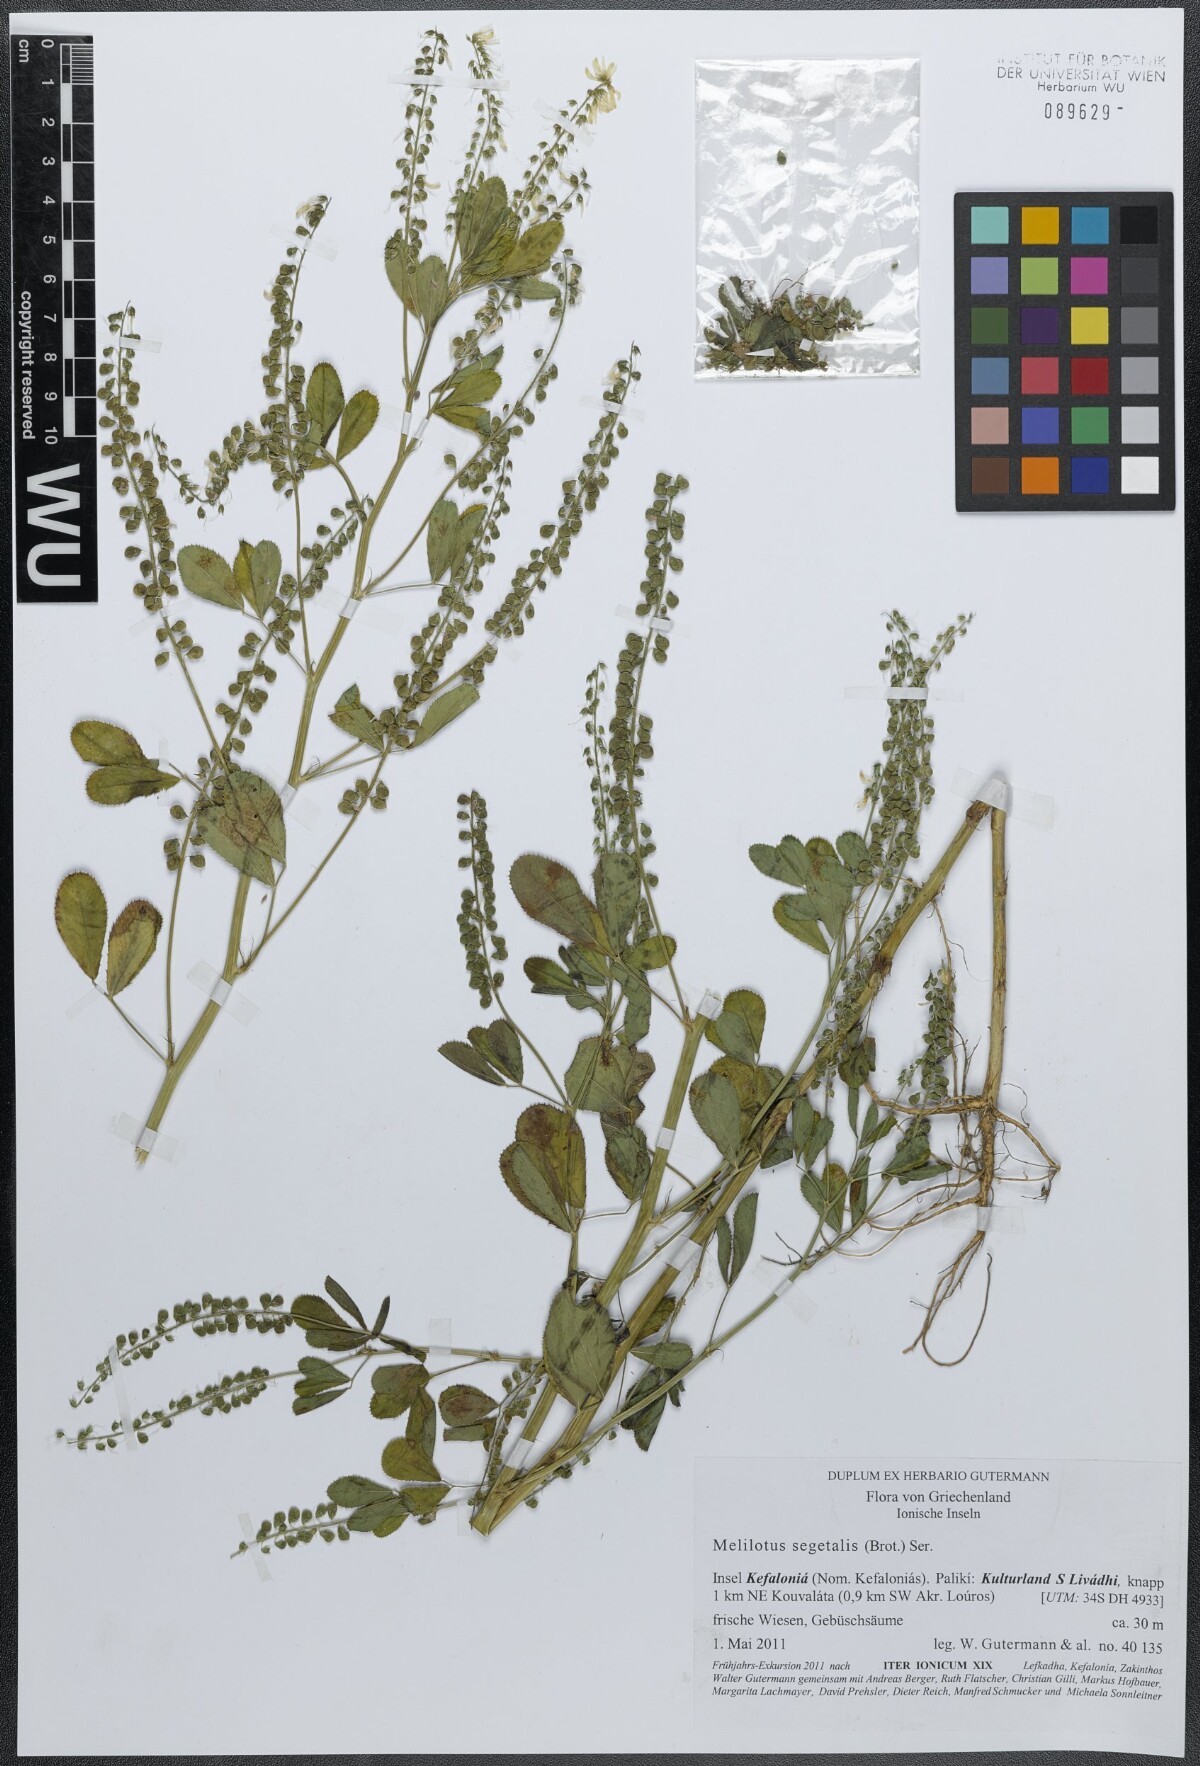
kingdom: Plantae
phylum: Tracheophyta
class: Magnoliopsida
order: Fabales
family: Fabaceae
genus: Melilotus
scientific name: Melilotus segetalis
